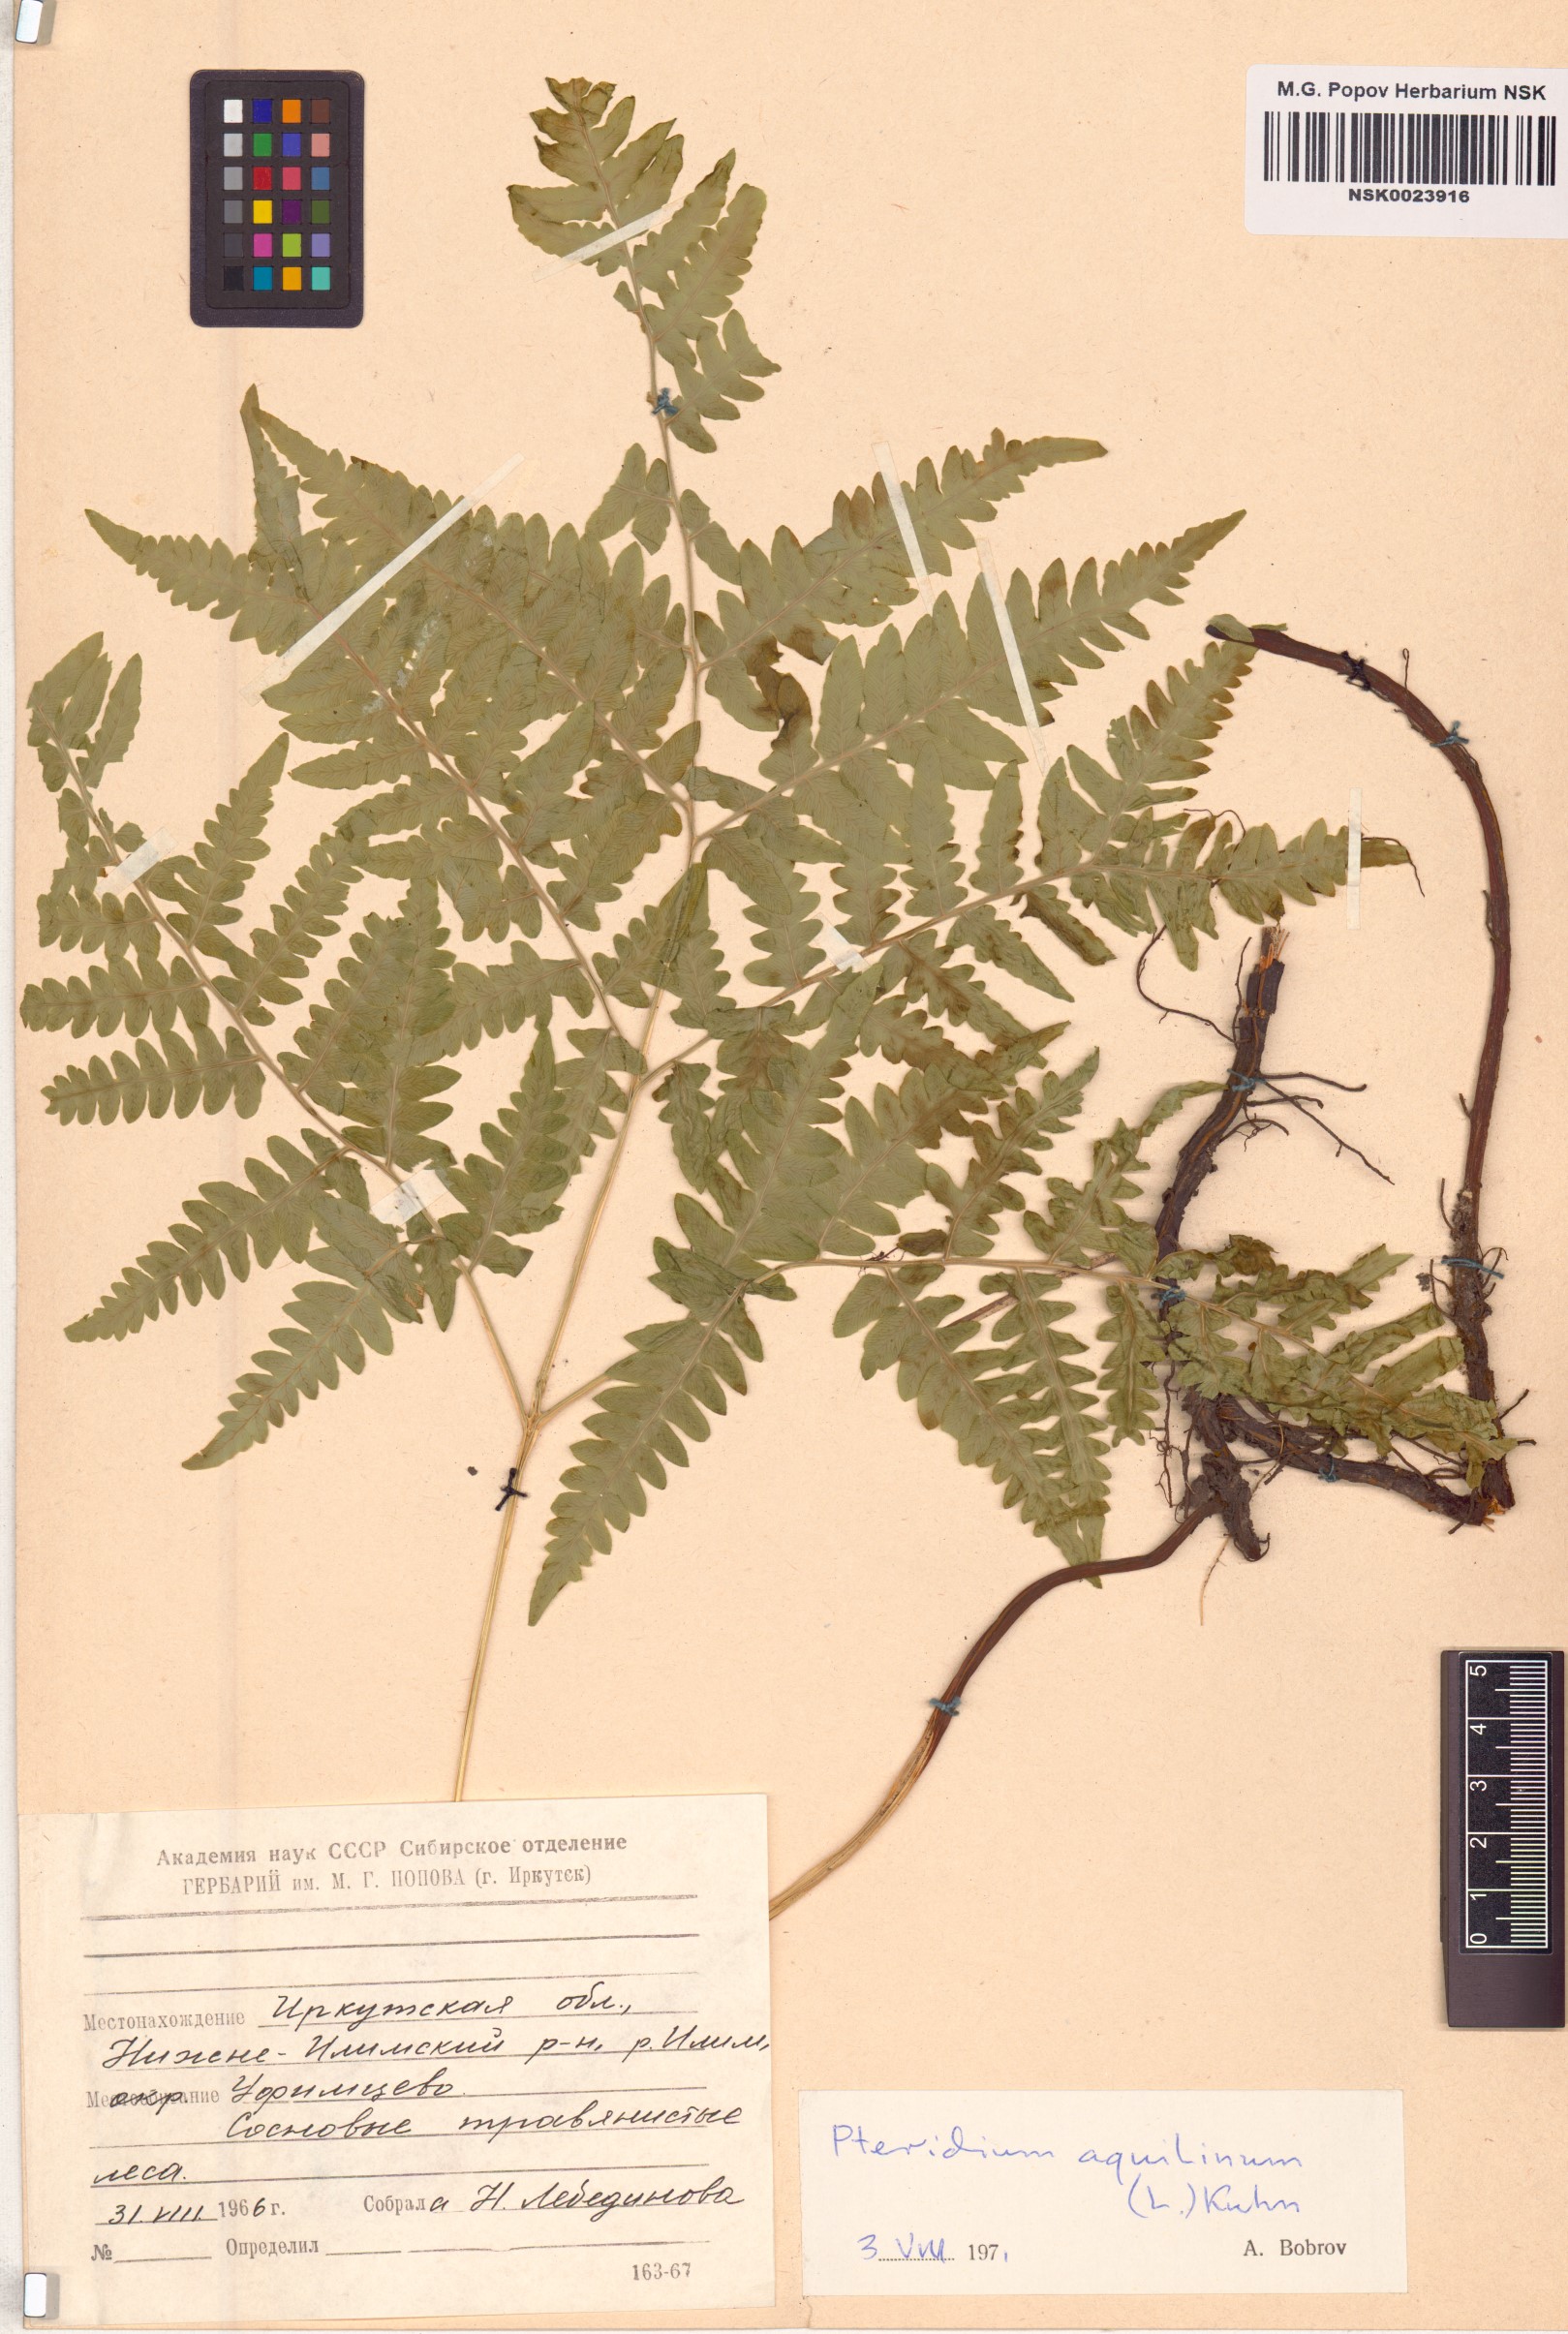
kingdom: Plantae
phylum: Tracheophyta
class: Polypodiopsida
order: Polypodiales
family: Dennstaedtiaceae
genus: Pteridium
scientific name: Pteridium aquilinum
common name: Bracken
